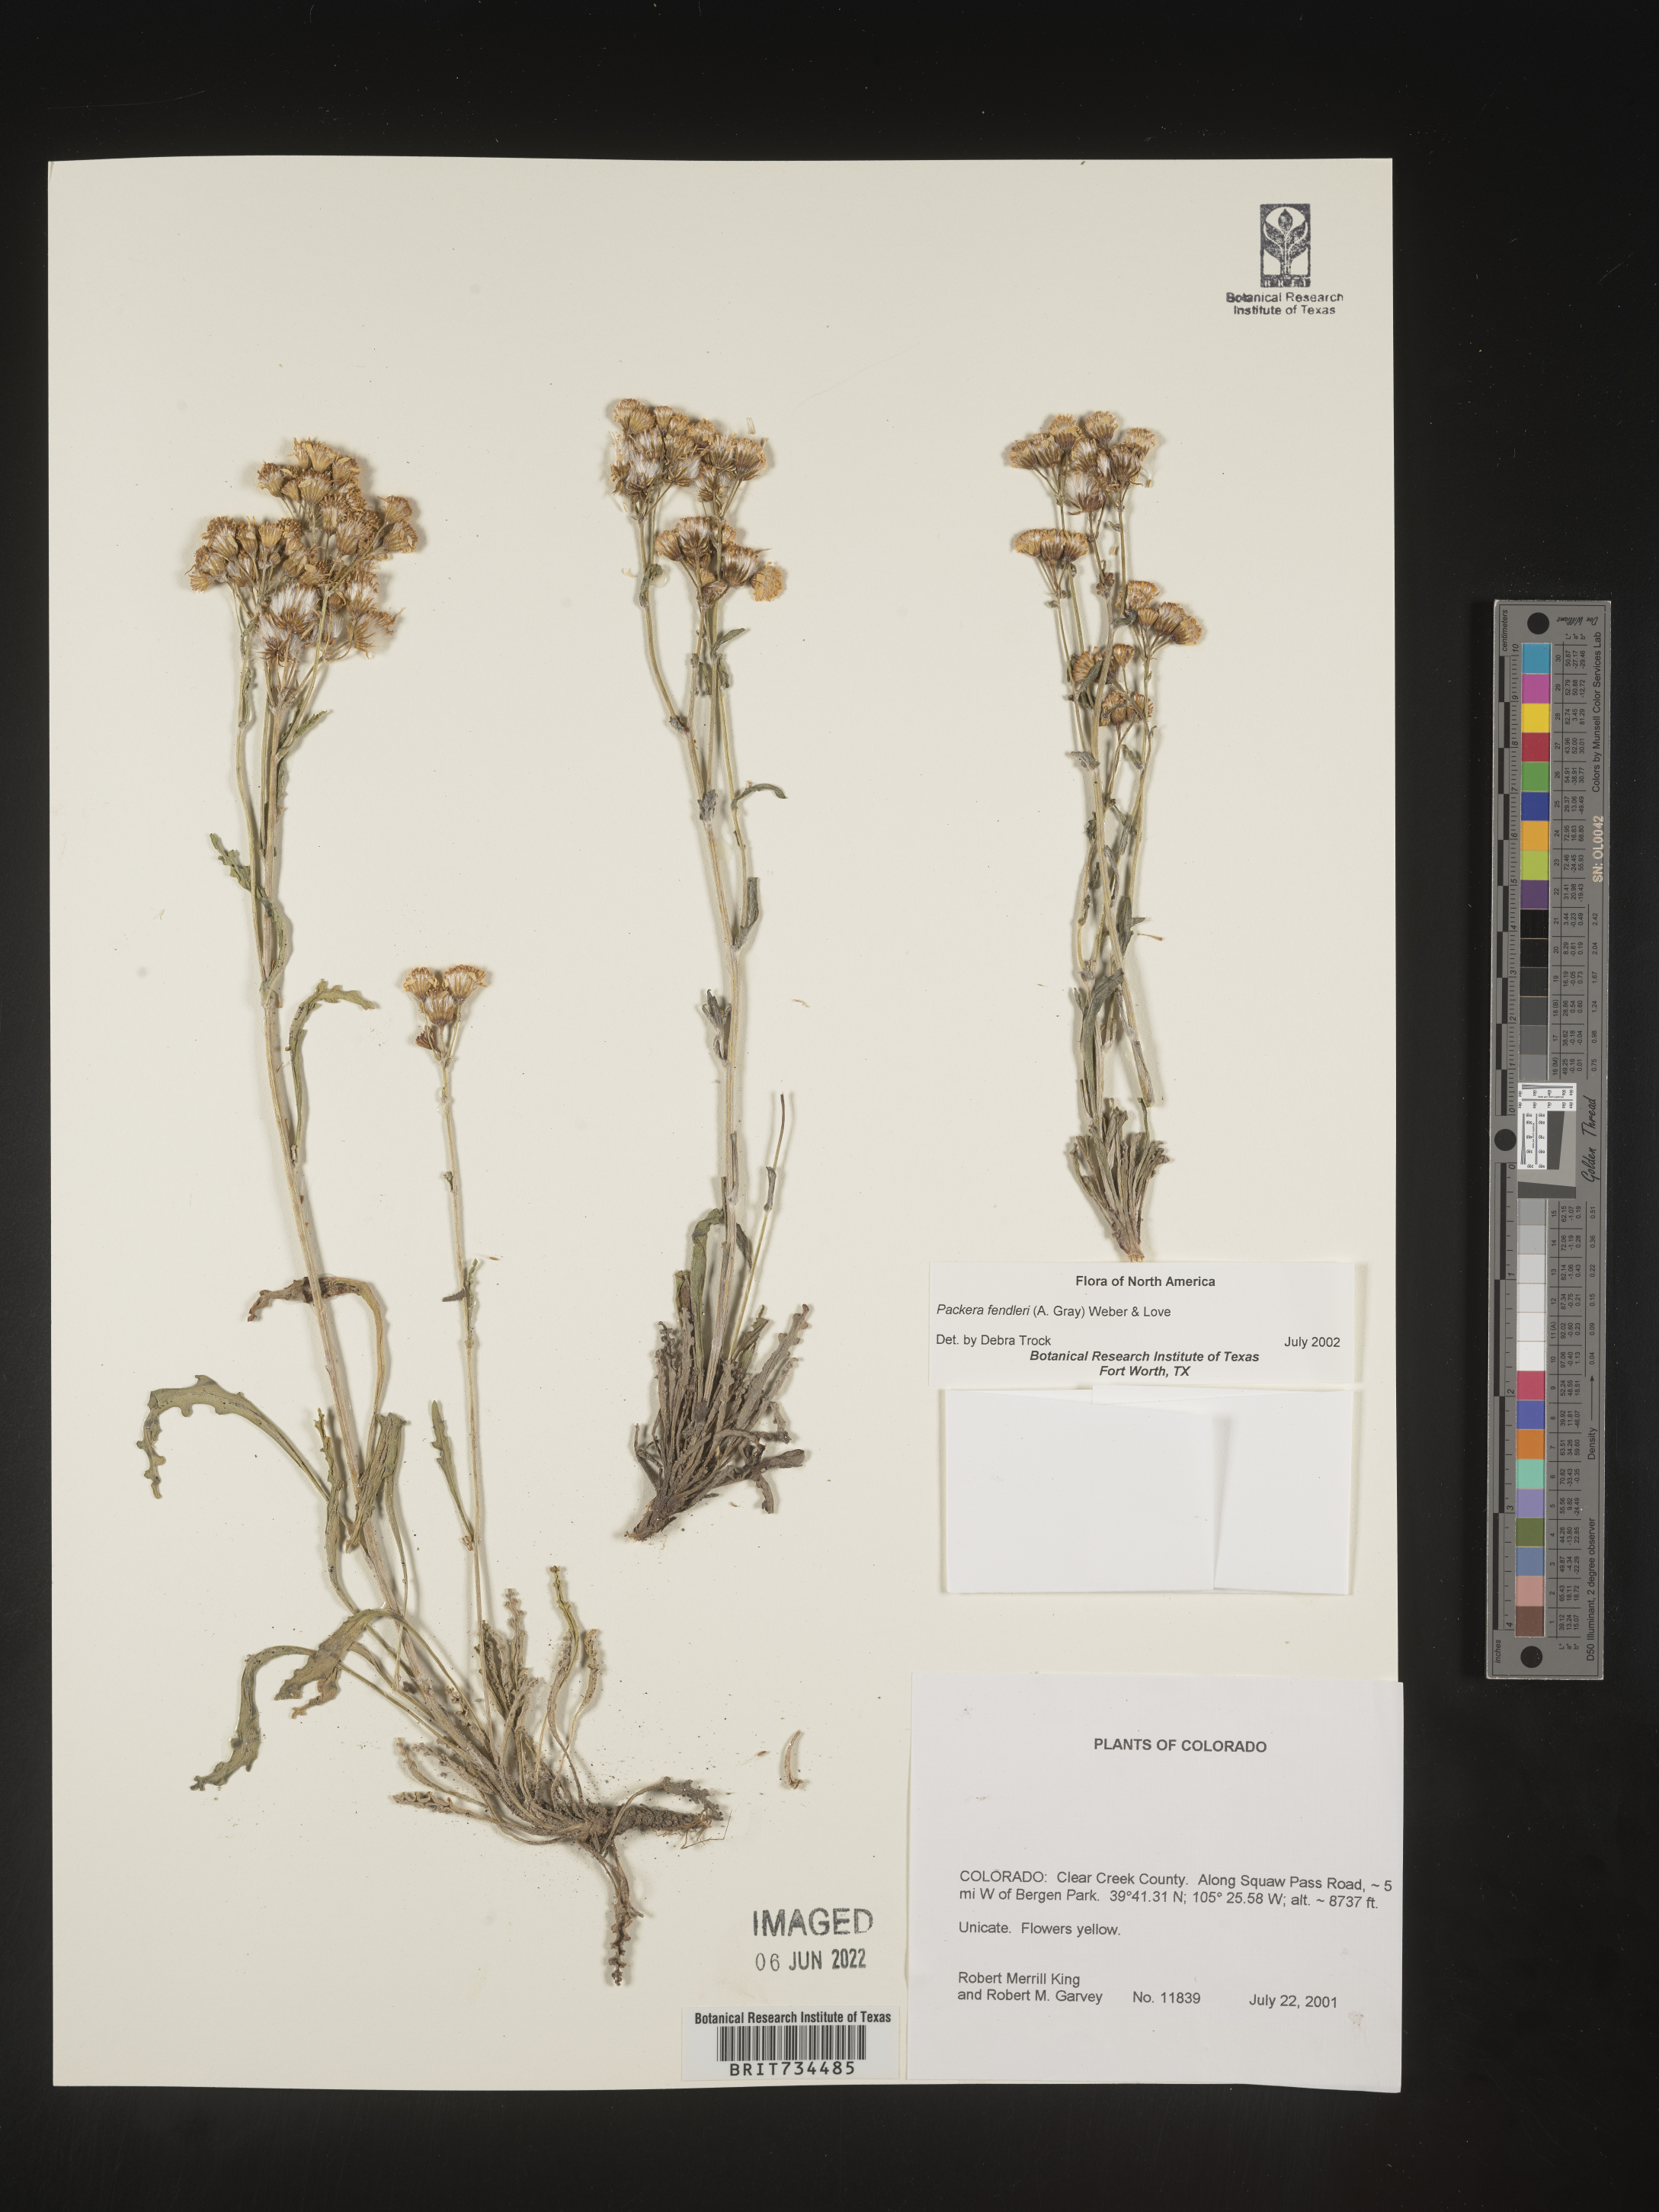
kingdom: Plantae
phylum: Tracheophyta
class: Magnoliopsida
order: Asterales
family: Asteraceae
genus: Packera
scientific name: Packera fendleri
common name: Notch-leaf butterweed
